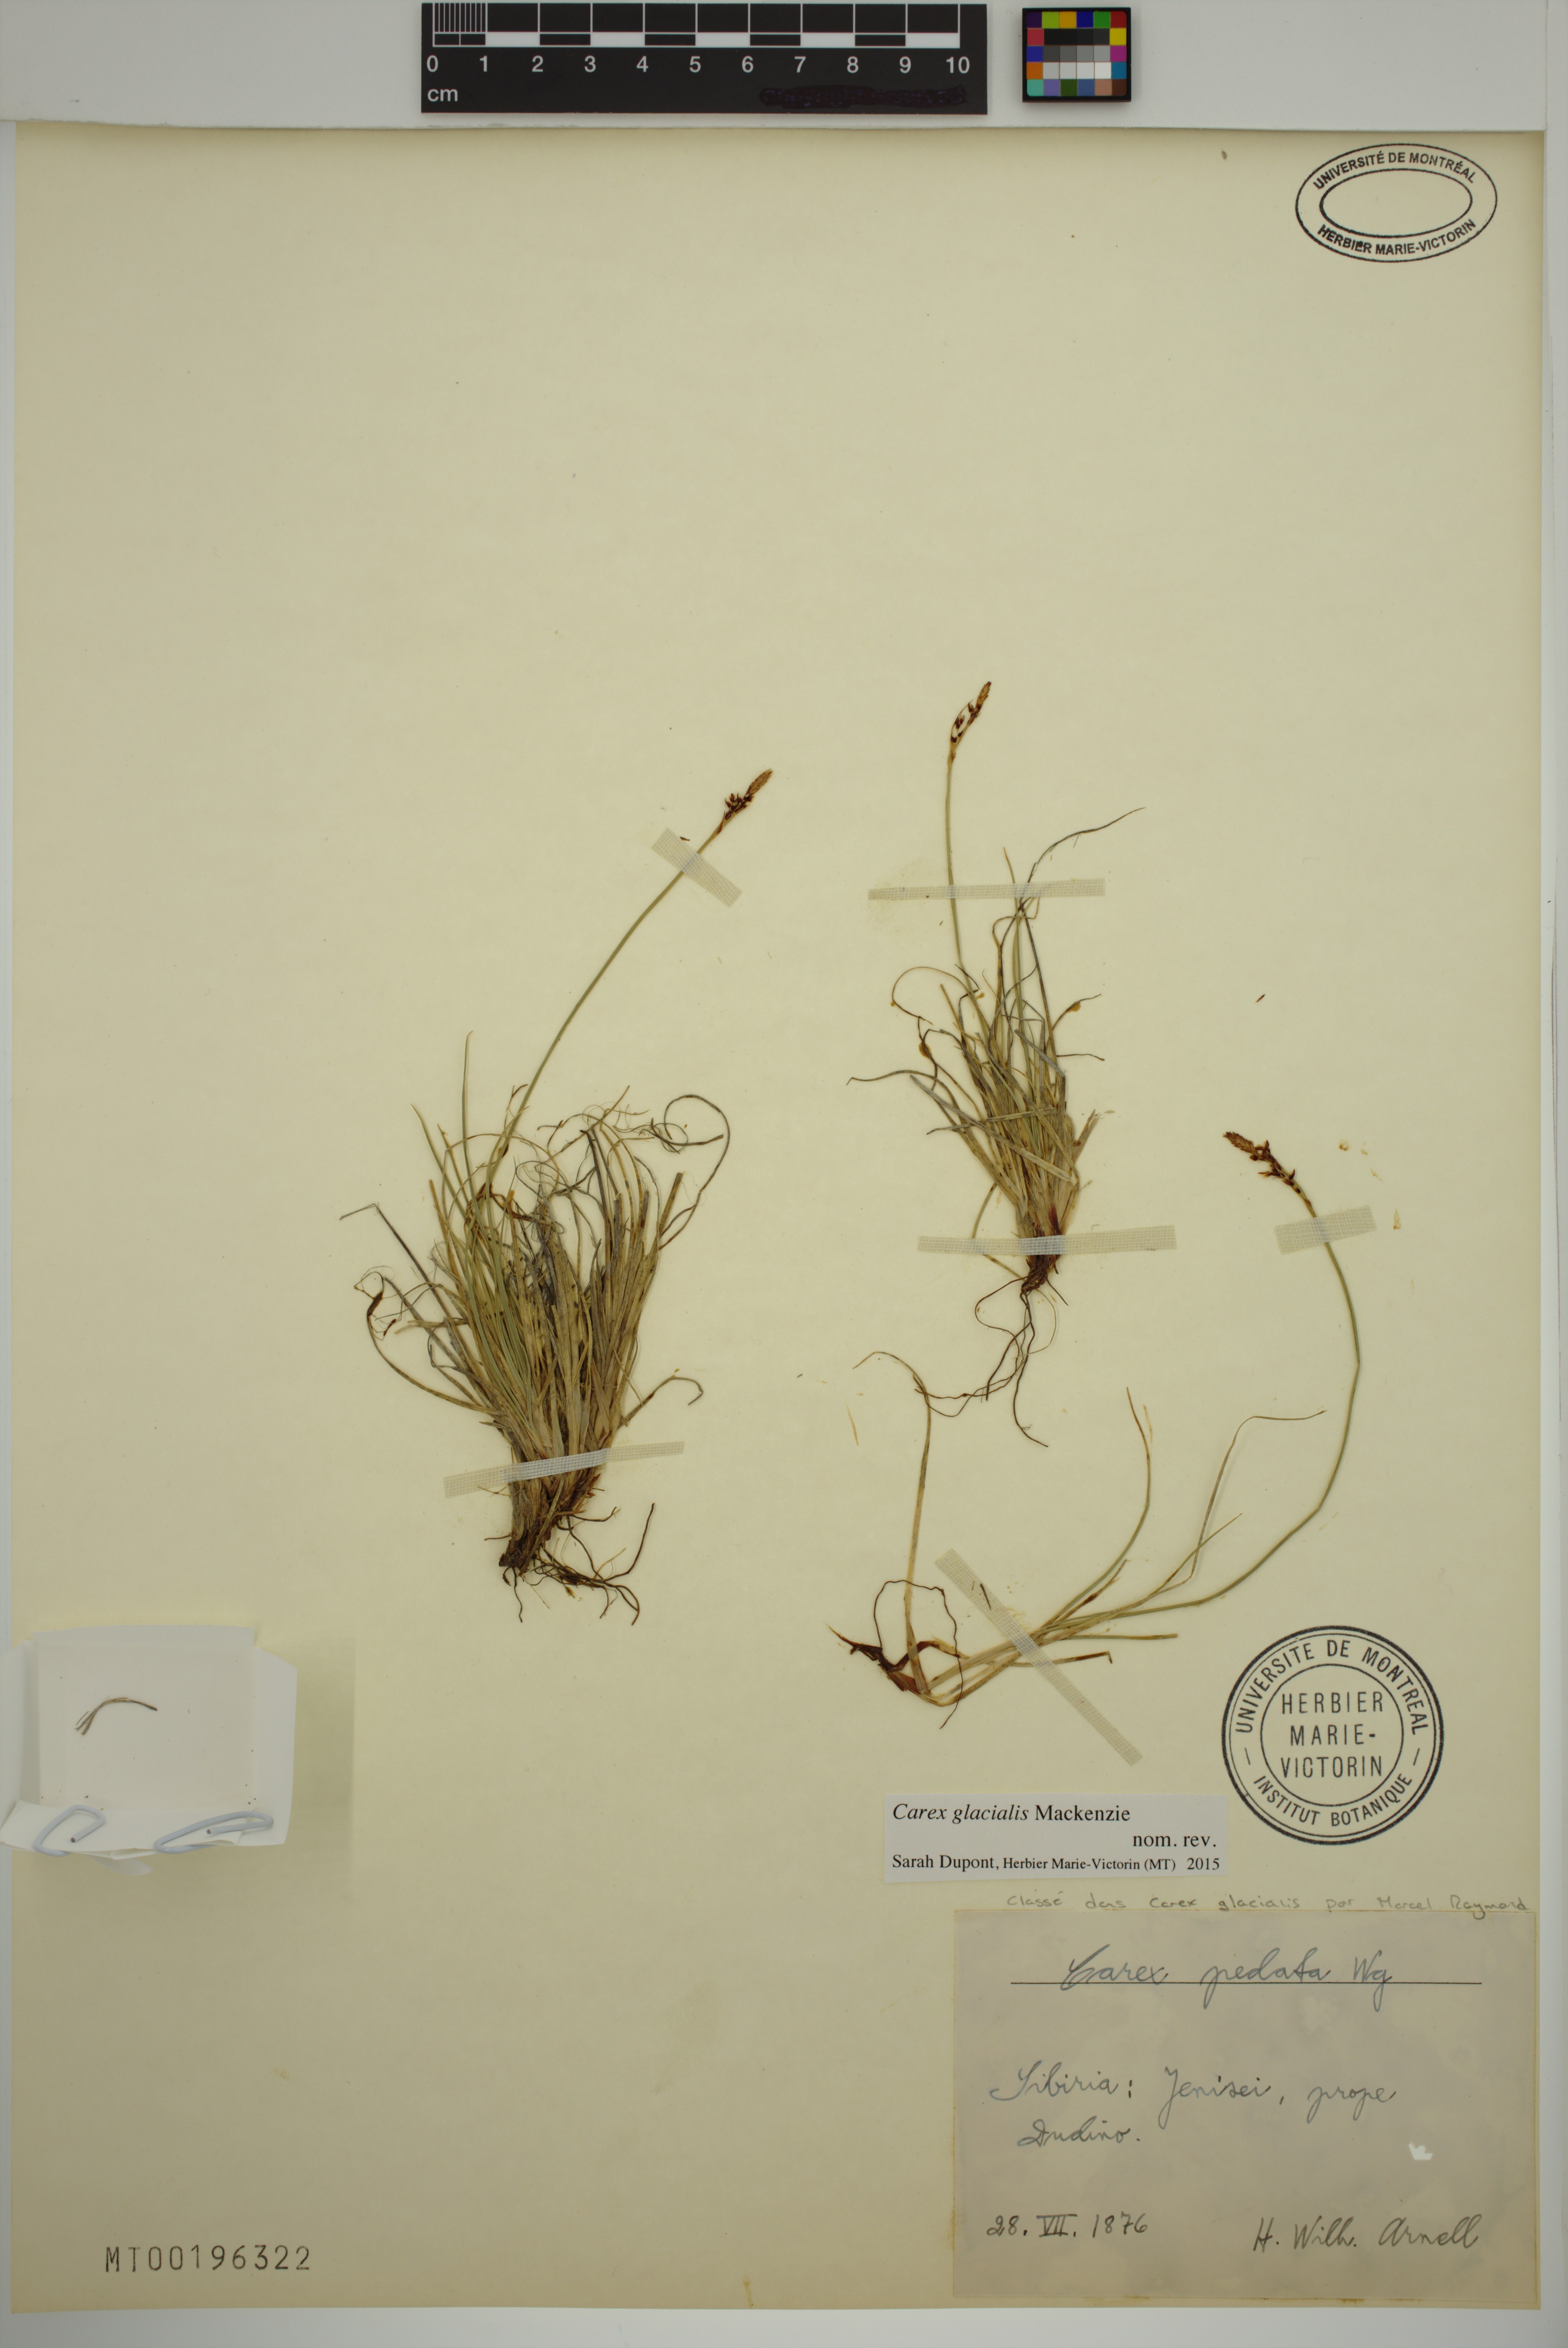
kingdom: Plantae
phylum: Tracheophyta
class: Liliopsida
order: Poales
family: Cyperaceae
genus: Carex
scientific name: Carex glacialis
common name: Newfoundland sedge
